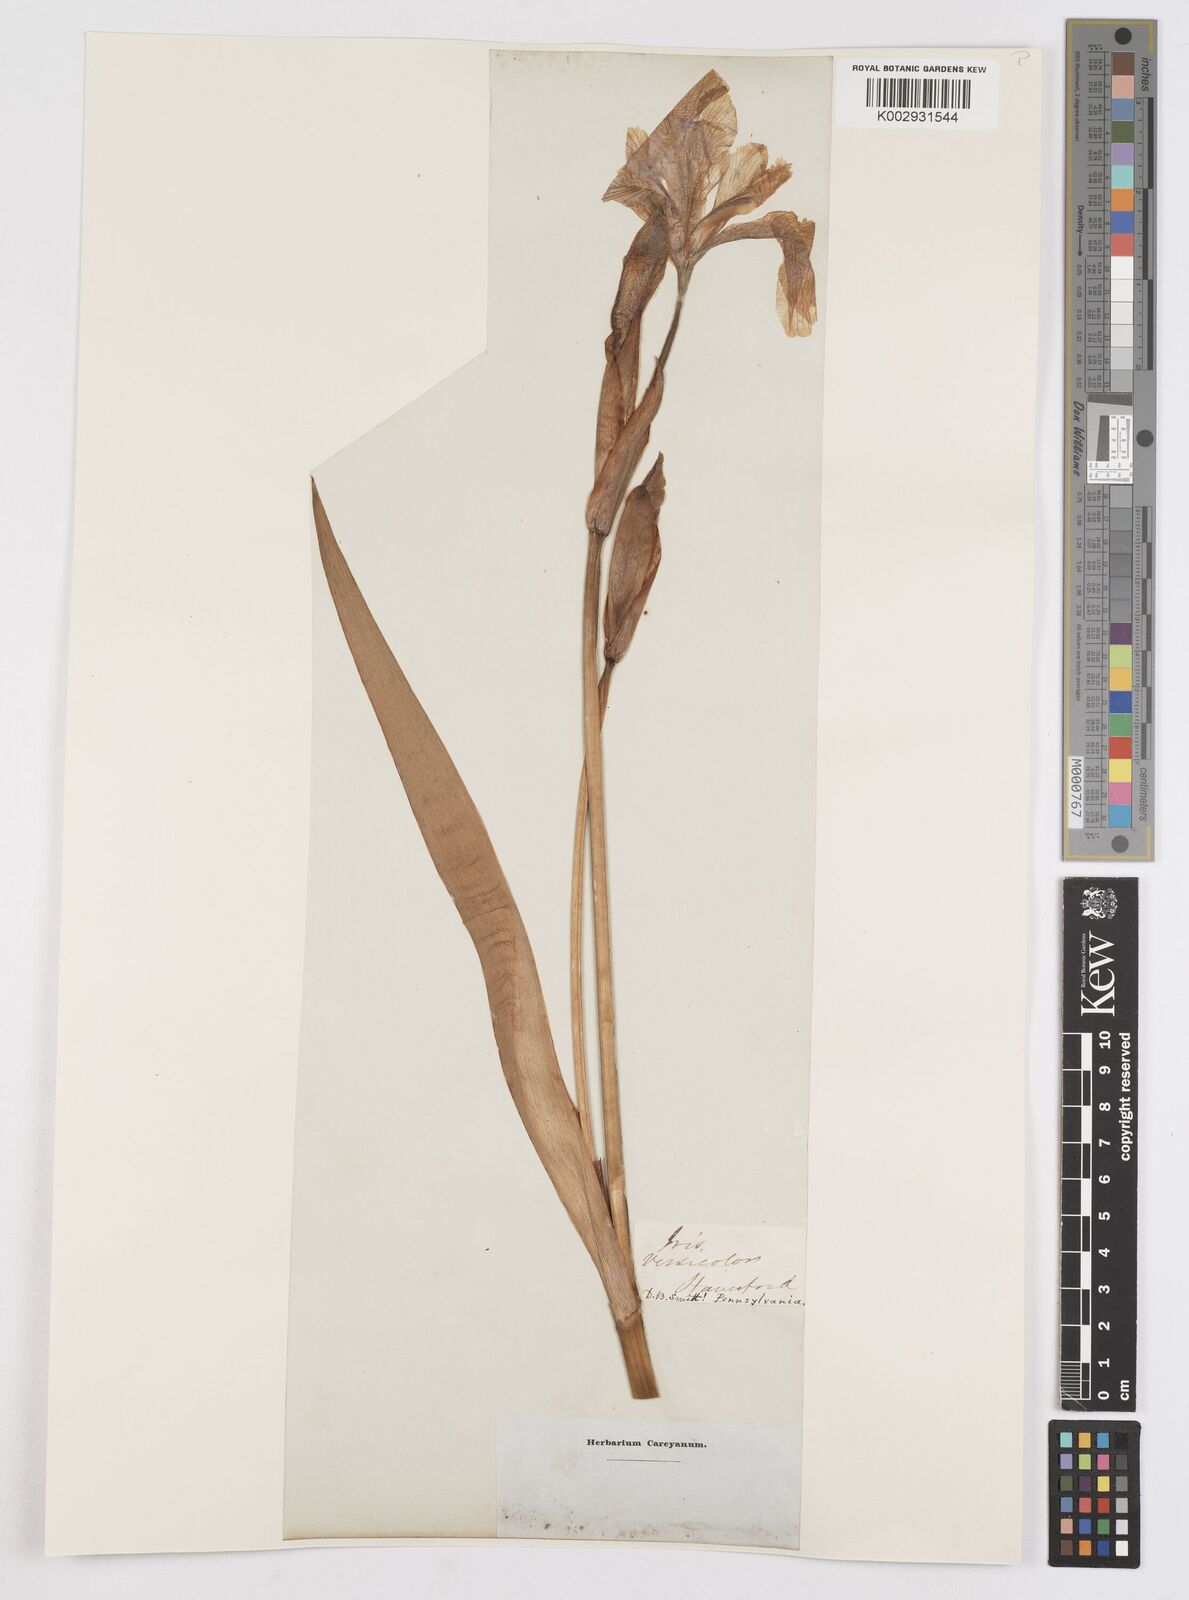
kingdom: Plantae
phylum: Tracheophyta
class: Liliopsida
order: Asparagales
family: Iridaceae
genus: Iris
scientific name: Iris versicolor
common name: Purple iris
